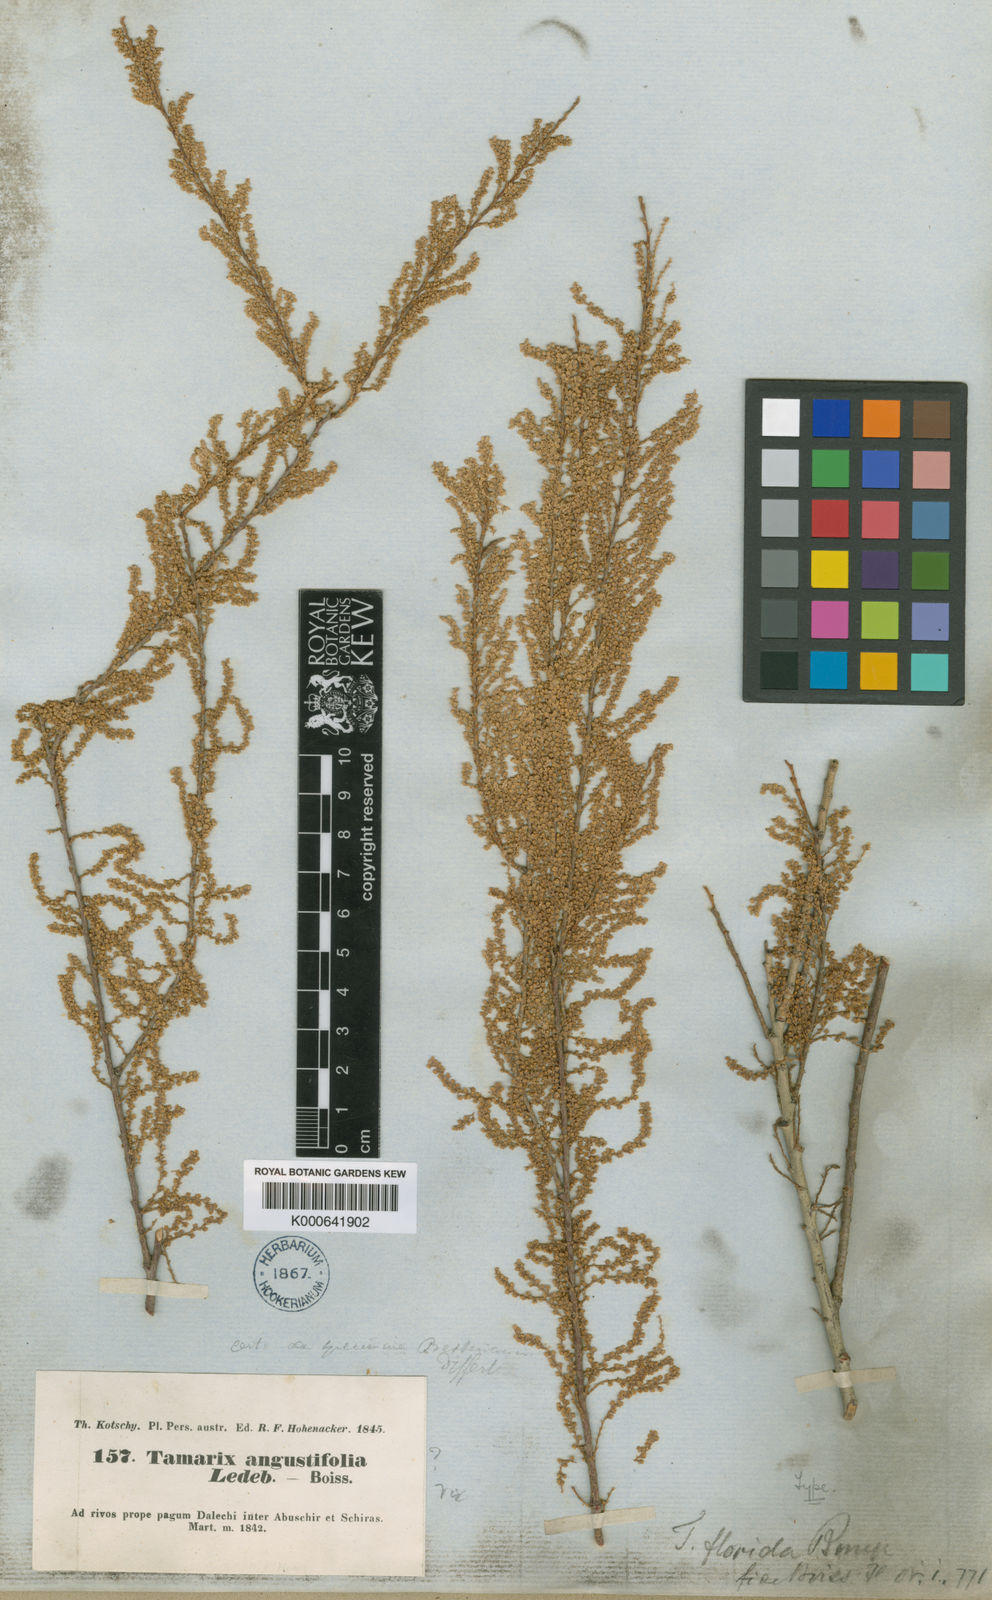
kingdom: Plantae
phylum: Tracheophyta
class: Magnoliopsida
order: Caryophyllales
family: Tamaricaceae
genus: Tamarix
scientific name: Tamarix florida
